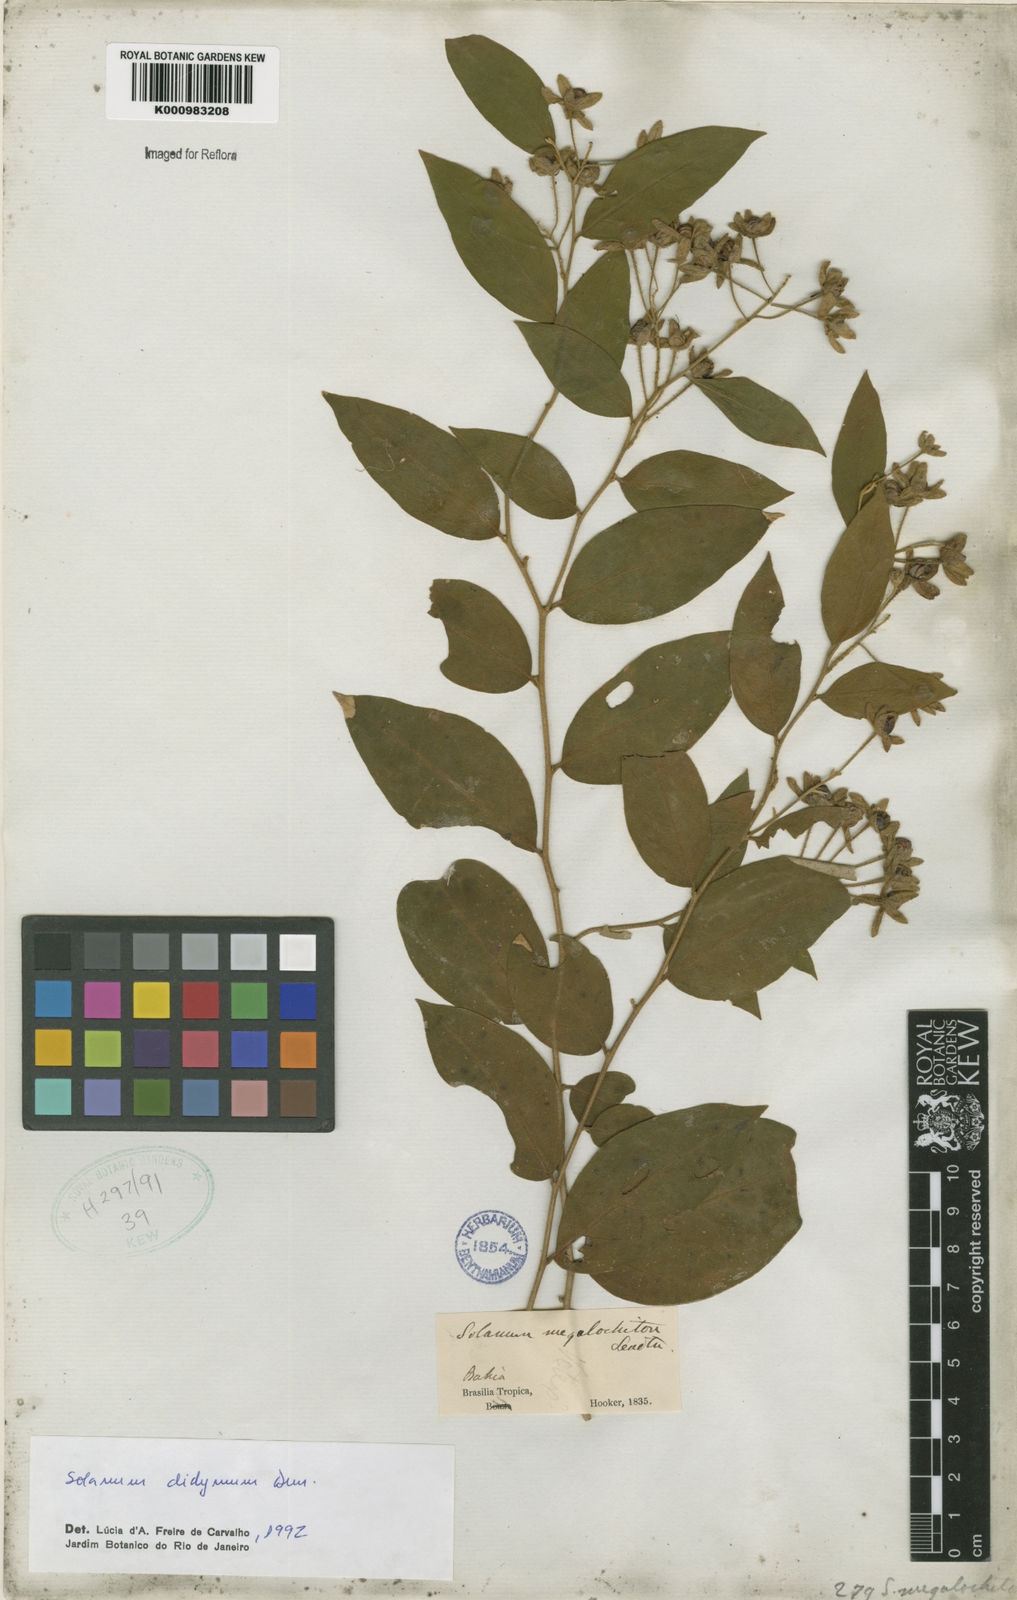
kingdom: Plantae
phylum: Tracheophyta
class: Magnoliopsida
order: Solanales
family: Solanaceae
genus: Solanum
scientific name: Solanum
